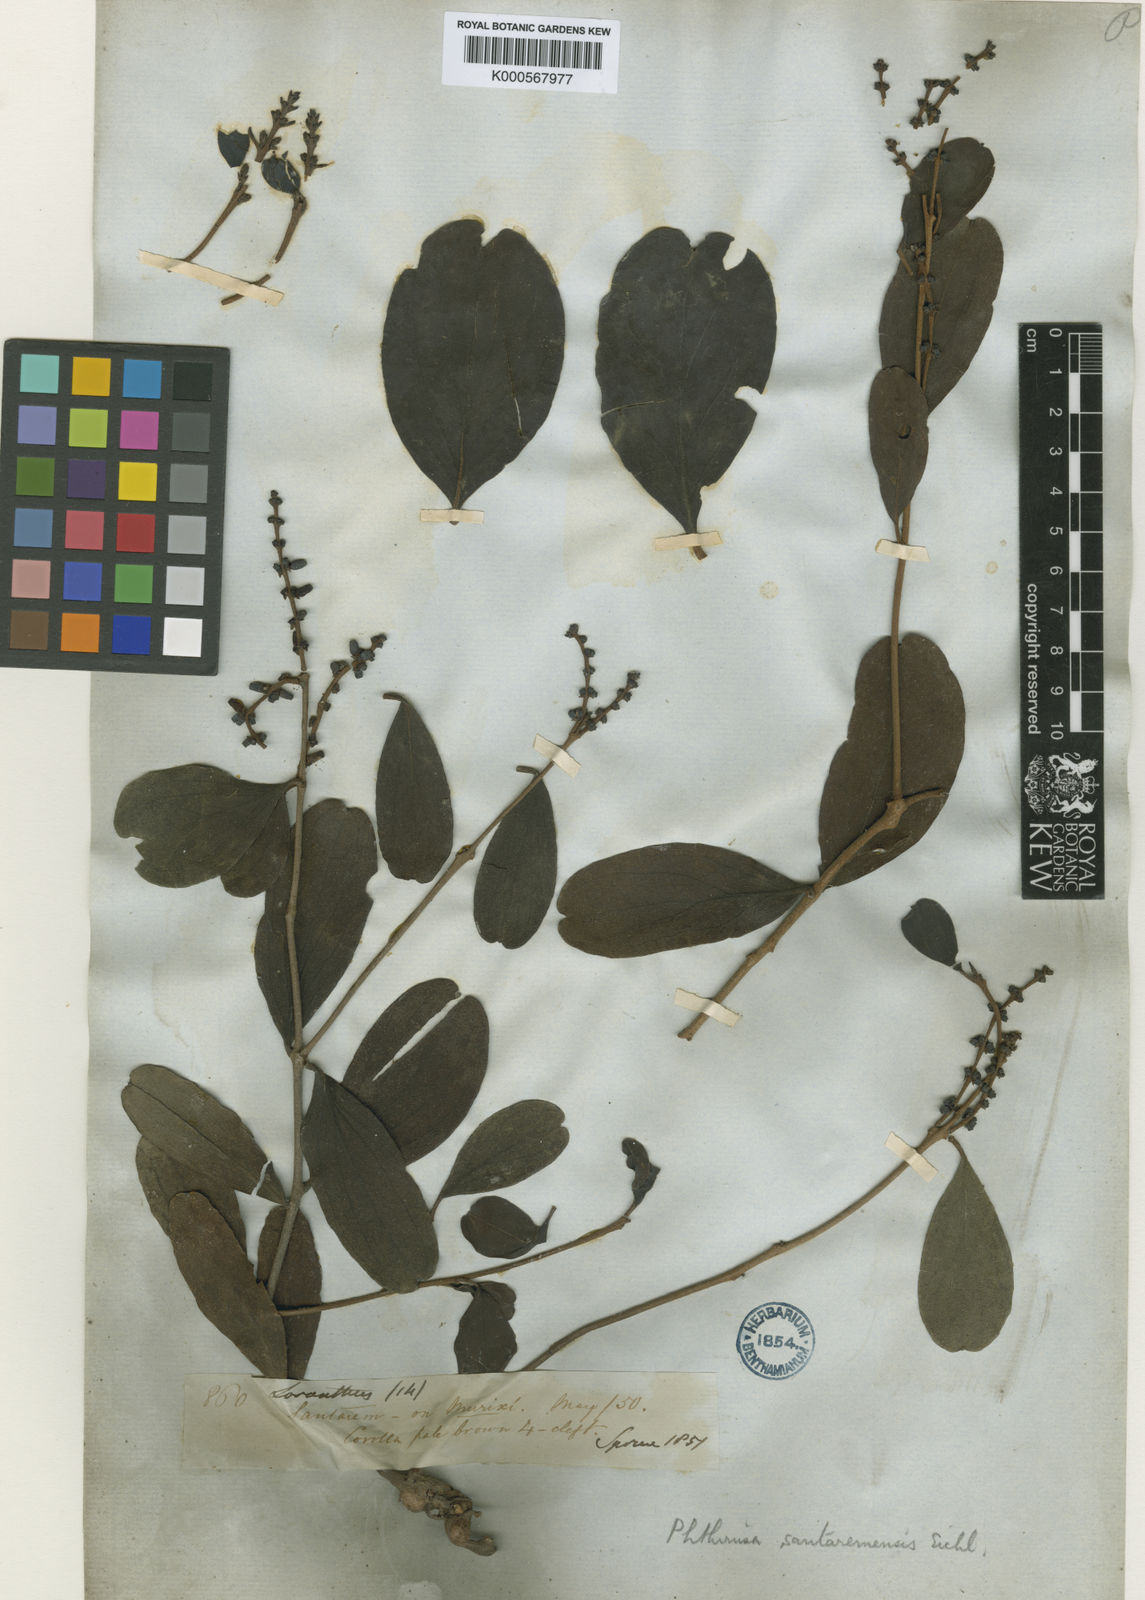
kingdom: Plantae
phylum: Tracheophyta
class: Magnoliopsida
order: Santalales
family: Loranthaceae
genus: Passovia
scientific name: Passovia santaremensis
